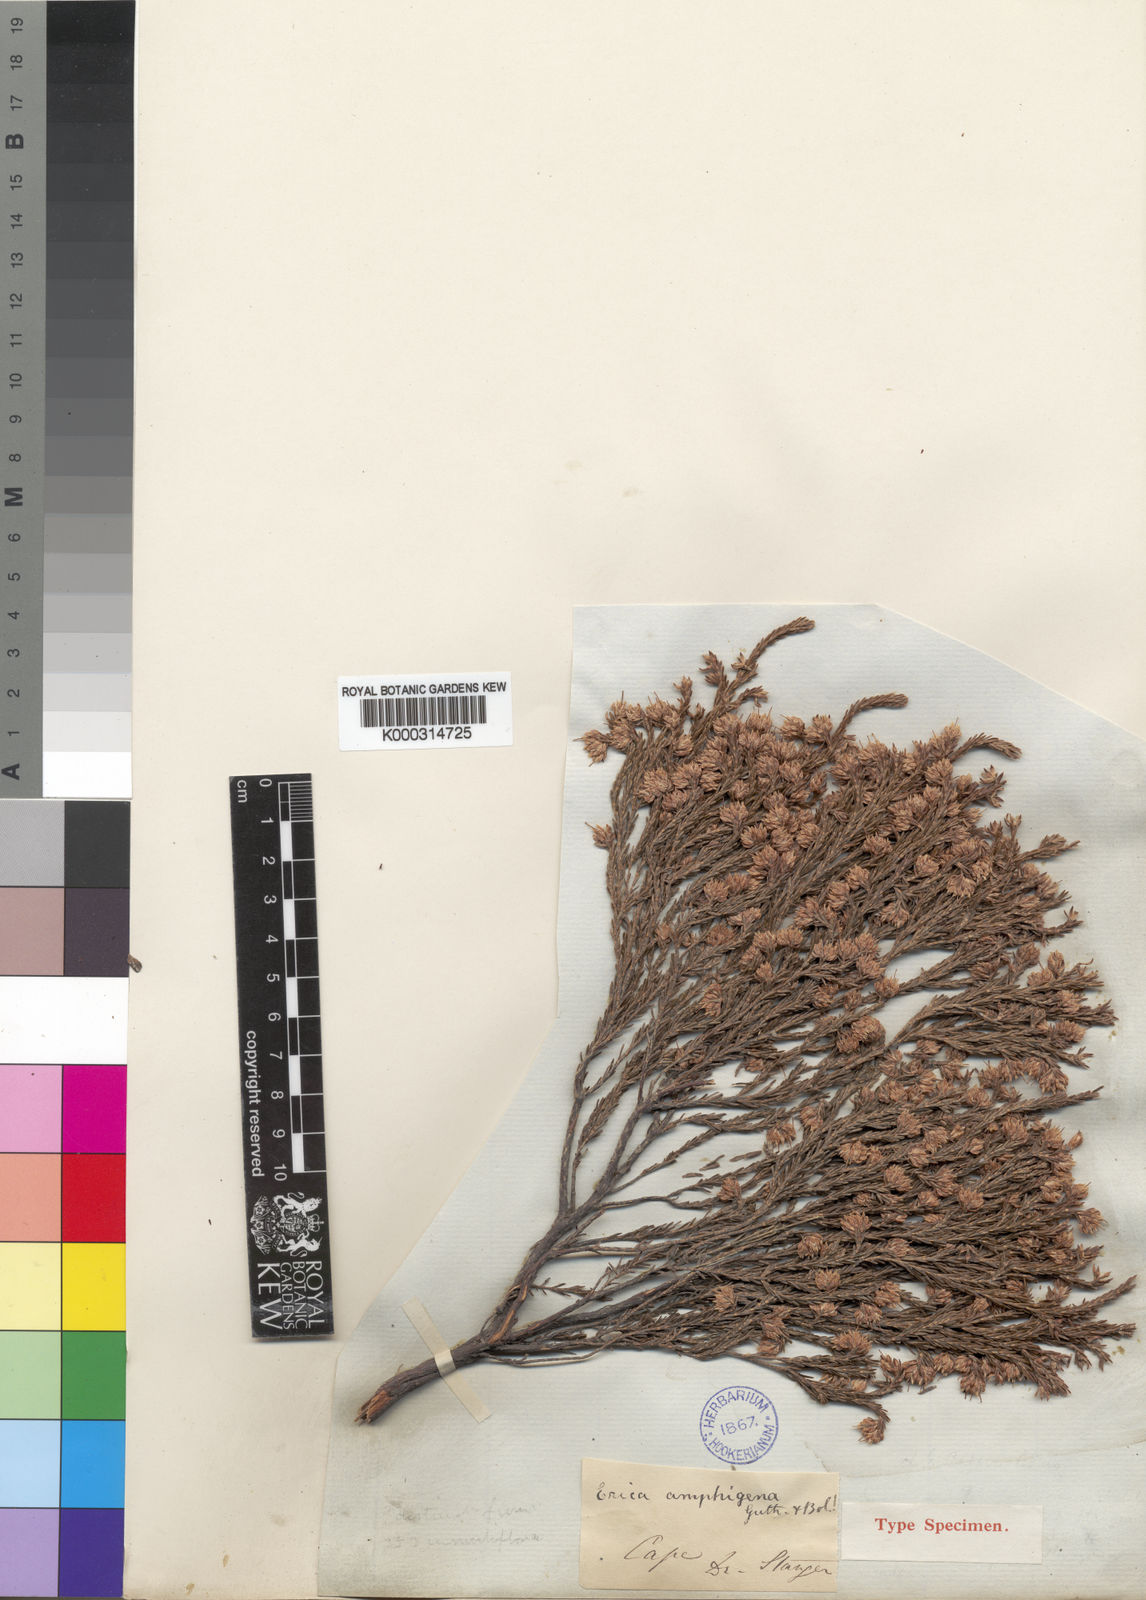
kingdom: Plantae
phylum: Tracheophyta
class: Magnoliopsida
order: Ericales
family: Ericaceae
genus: Erica
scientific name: Erica amphigena
